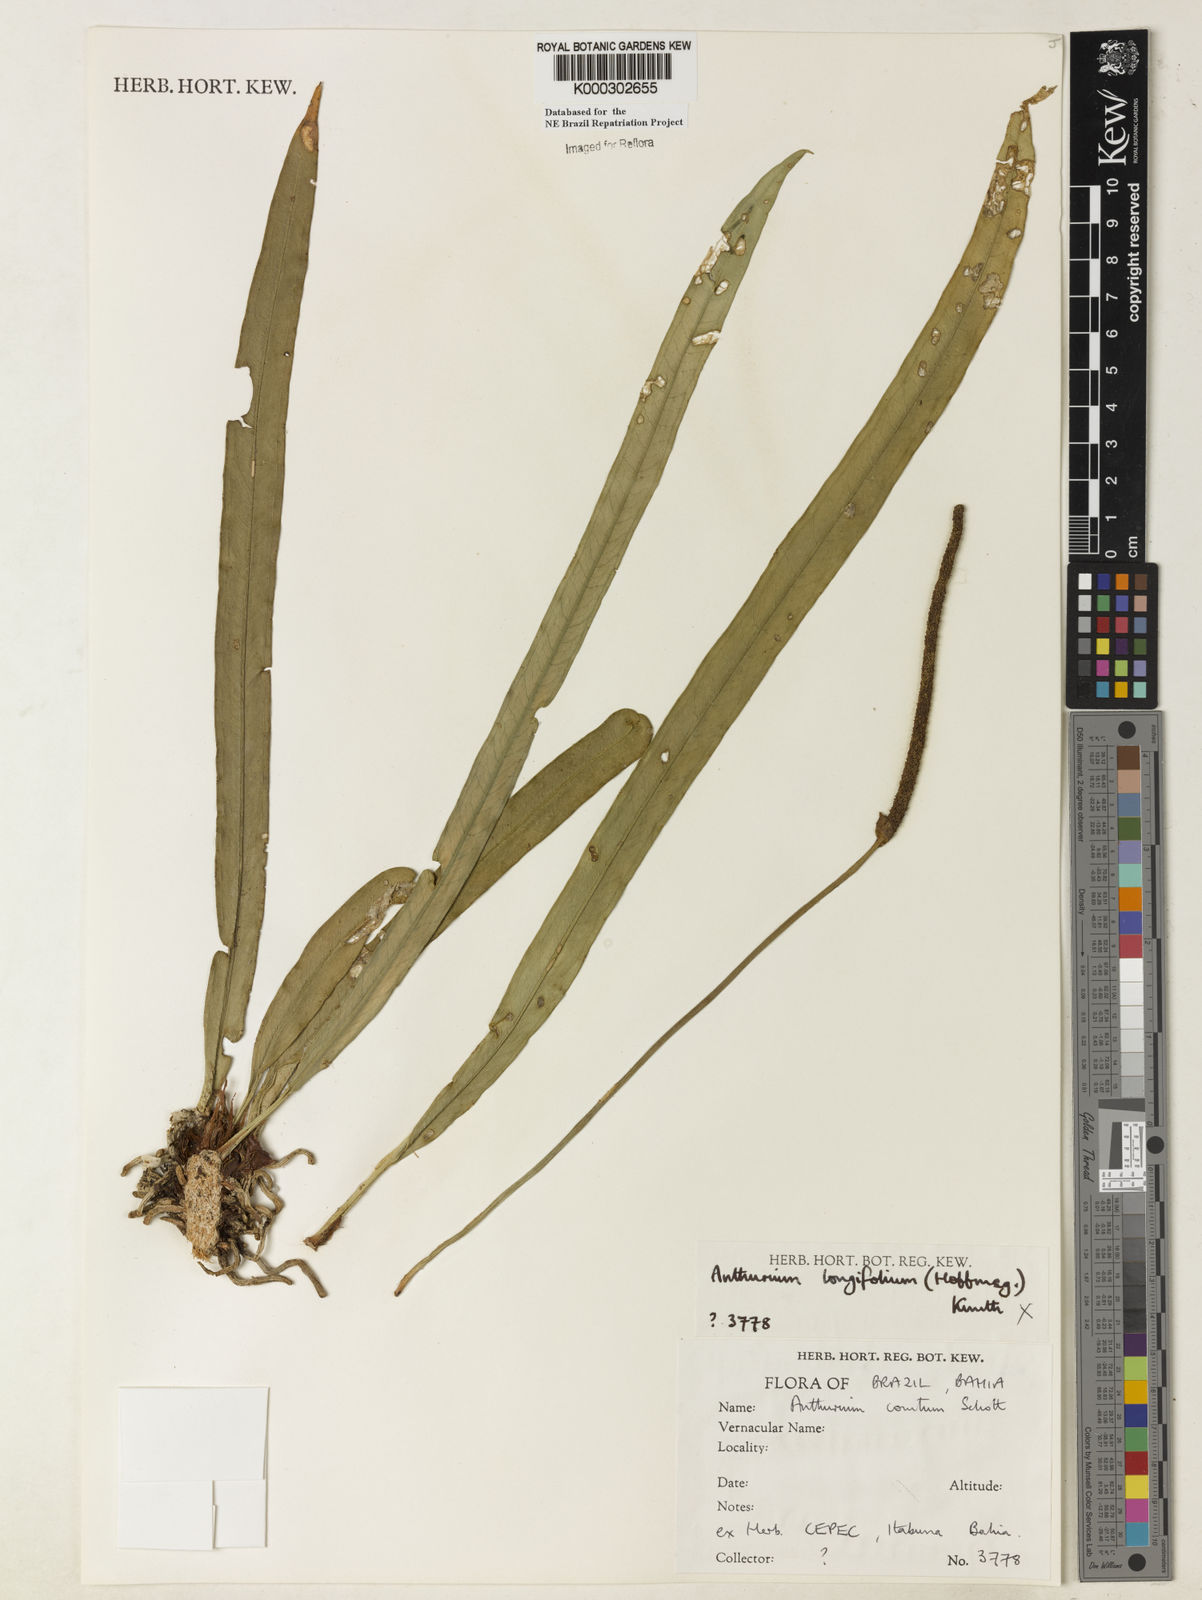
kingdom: Plantae
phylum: Tracheophyta
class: Liliopsida
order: Alismatales
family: Araceae
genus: Anthurium
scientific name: Anthurium comtum
